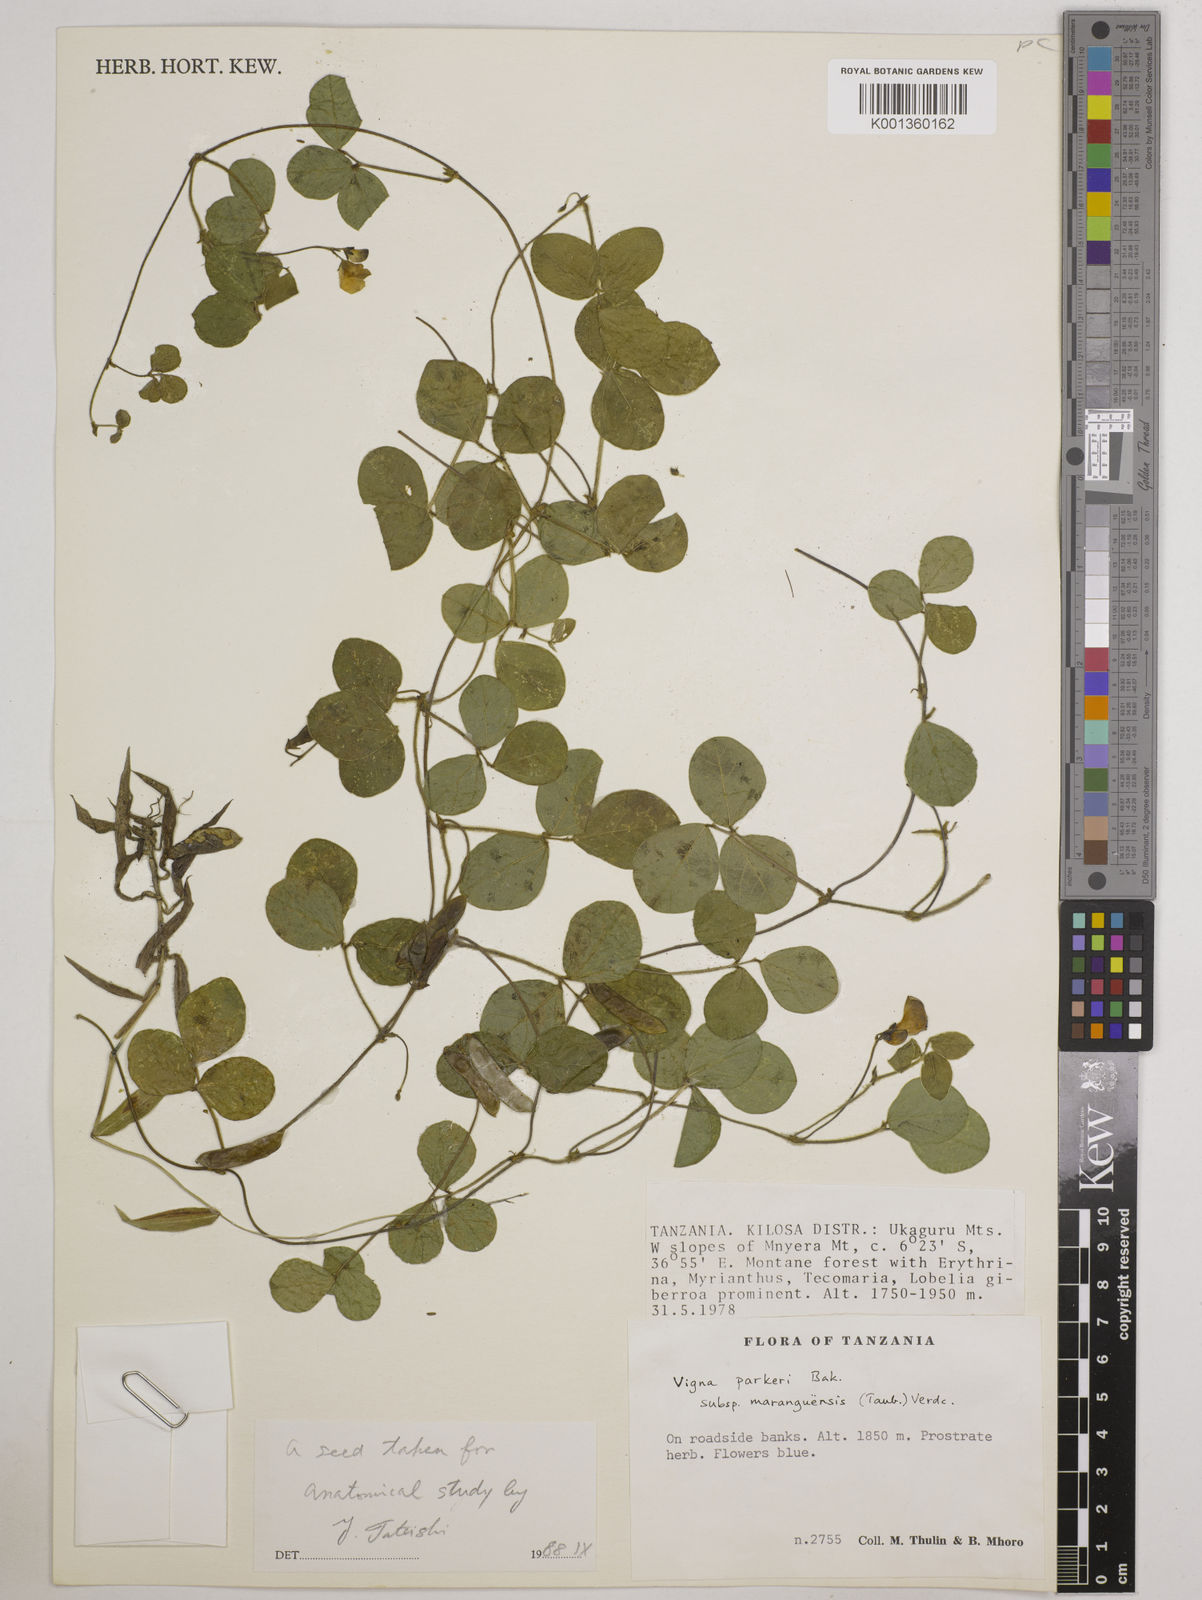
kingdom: Plantae
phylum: Tracheophyta
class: Magnoliopsida
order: Fabales
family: Fabaceae
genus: Vigna
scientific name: Vigna
